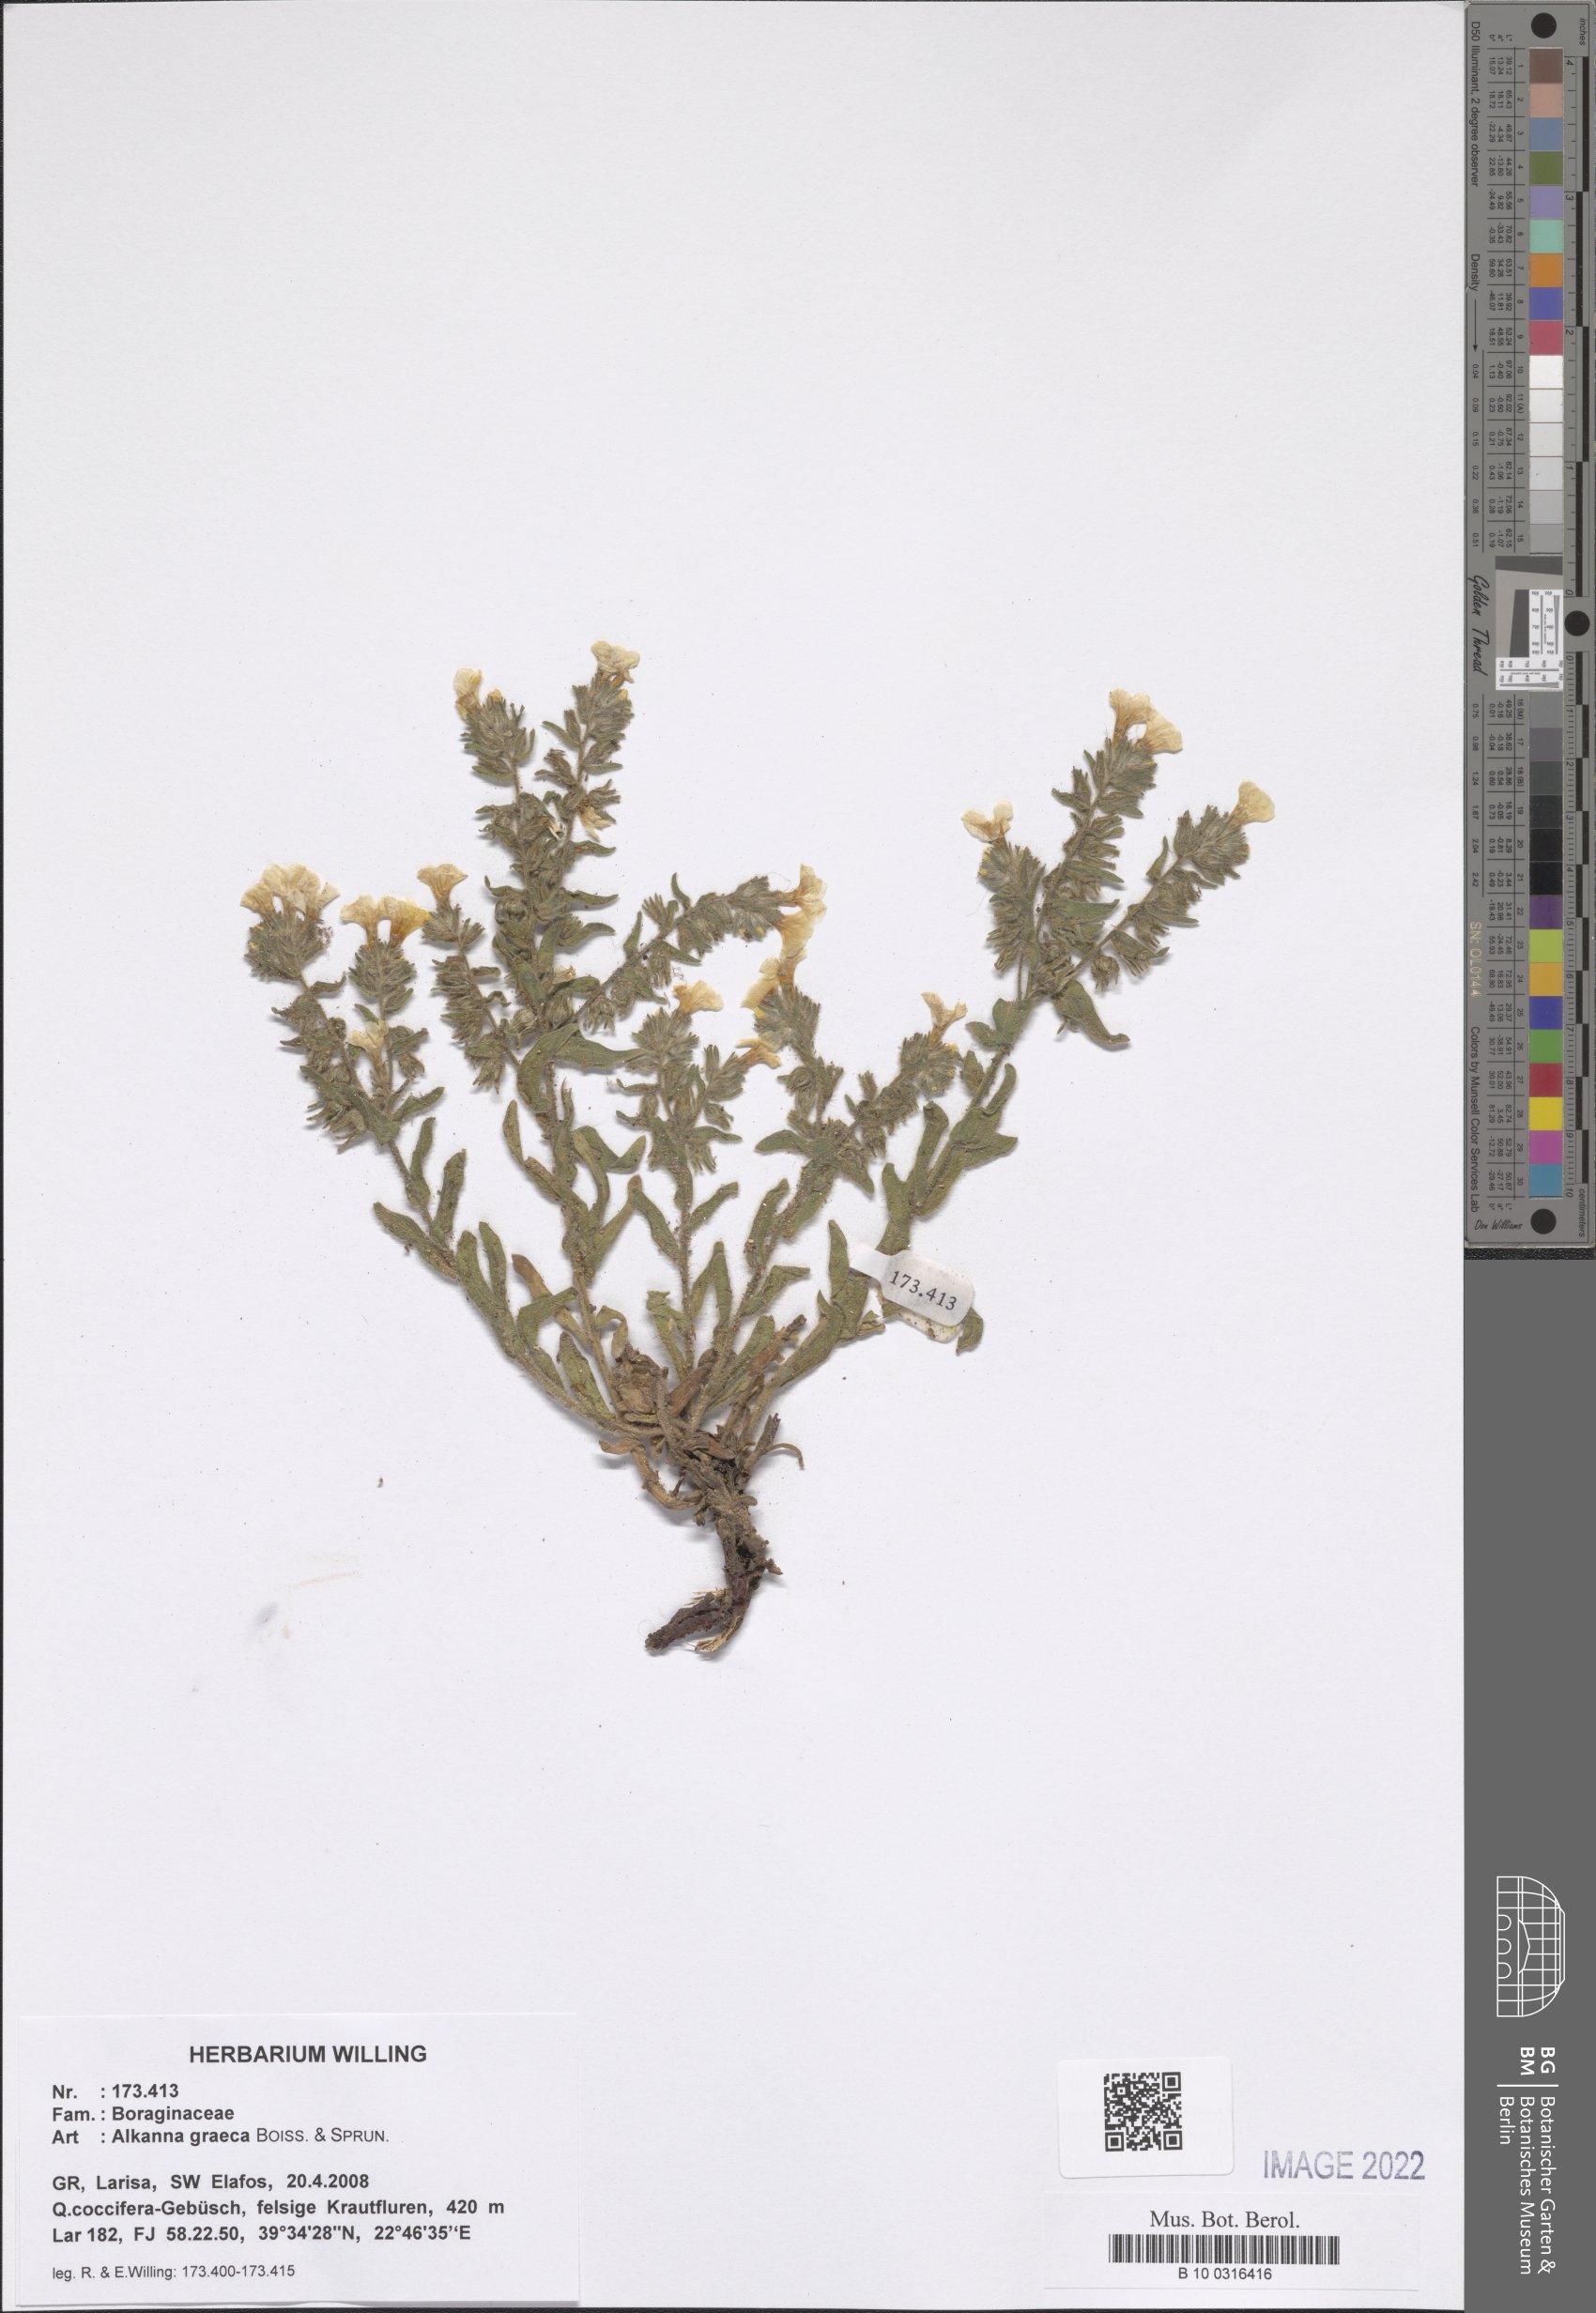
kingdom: Plantae
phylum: Tracheophyta
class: Magnoliopsida
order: Boraginales
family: Boraginaceae
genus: Alkanna
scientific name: Alkanna graeca
